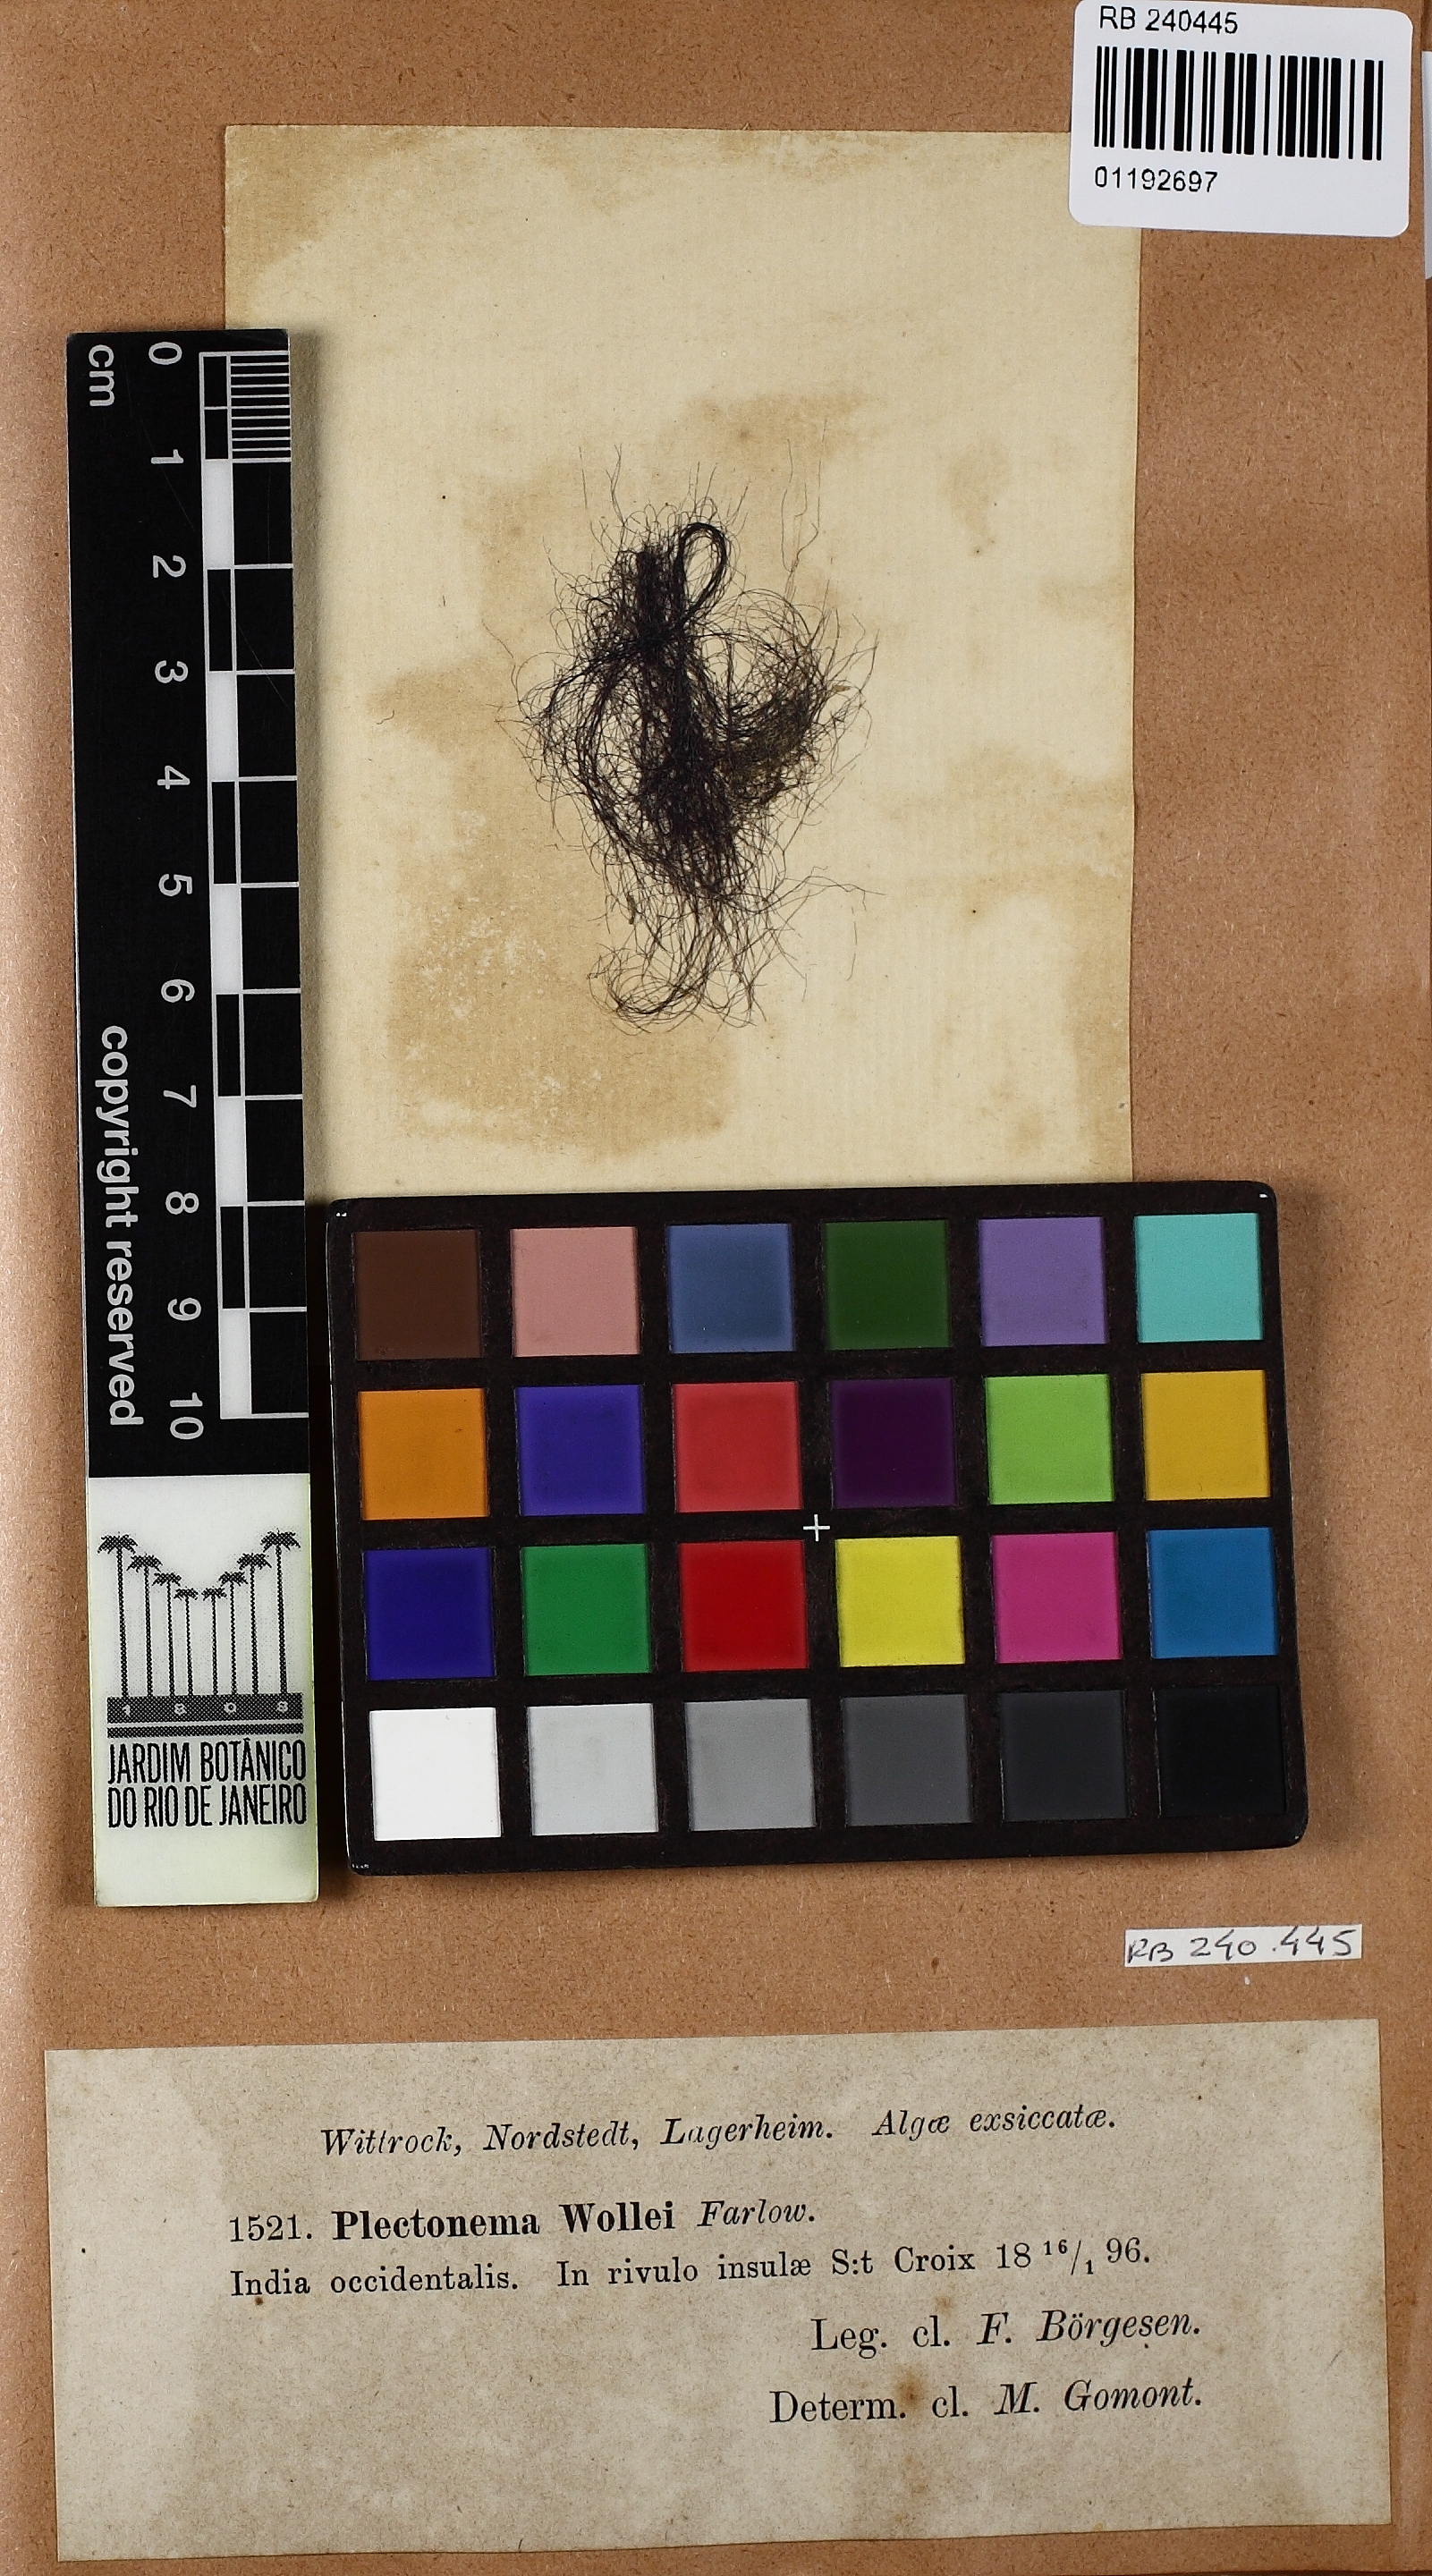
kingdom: Bacteria
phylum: Cyanobacteria
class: Cyanobacteriia
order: Cyanobacteriales
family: Aerosakkonemataceae
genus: Microseira
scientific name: Microseira wollei
